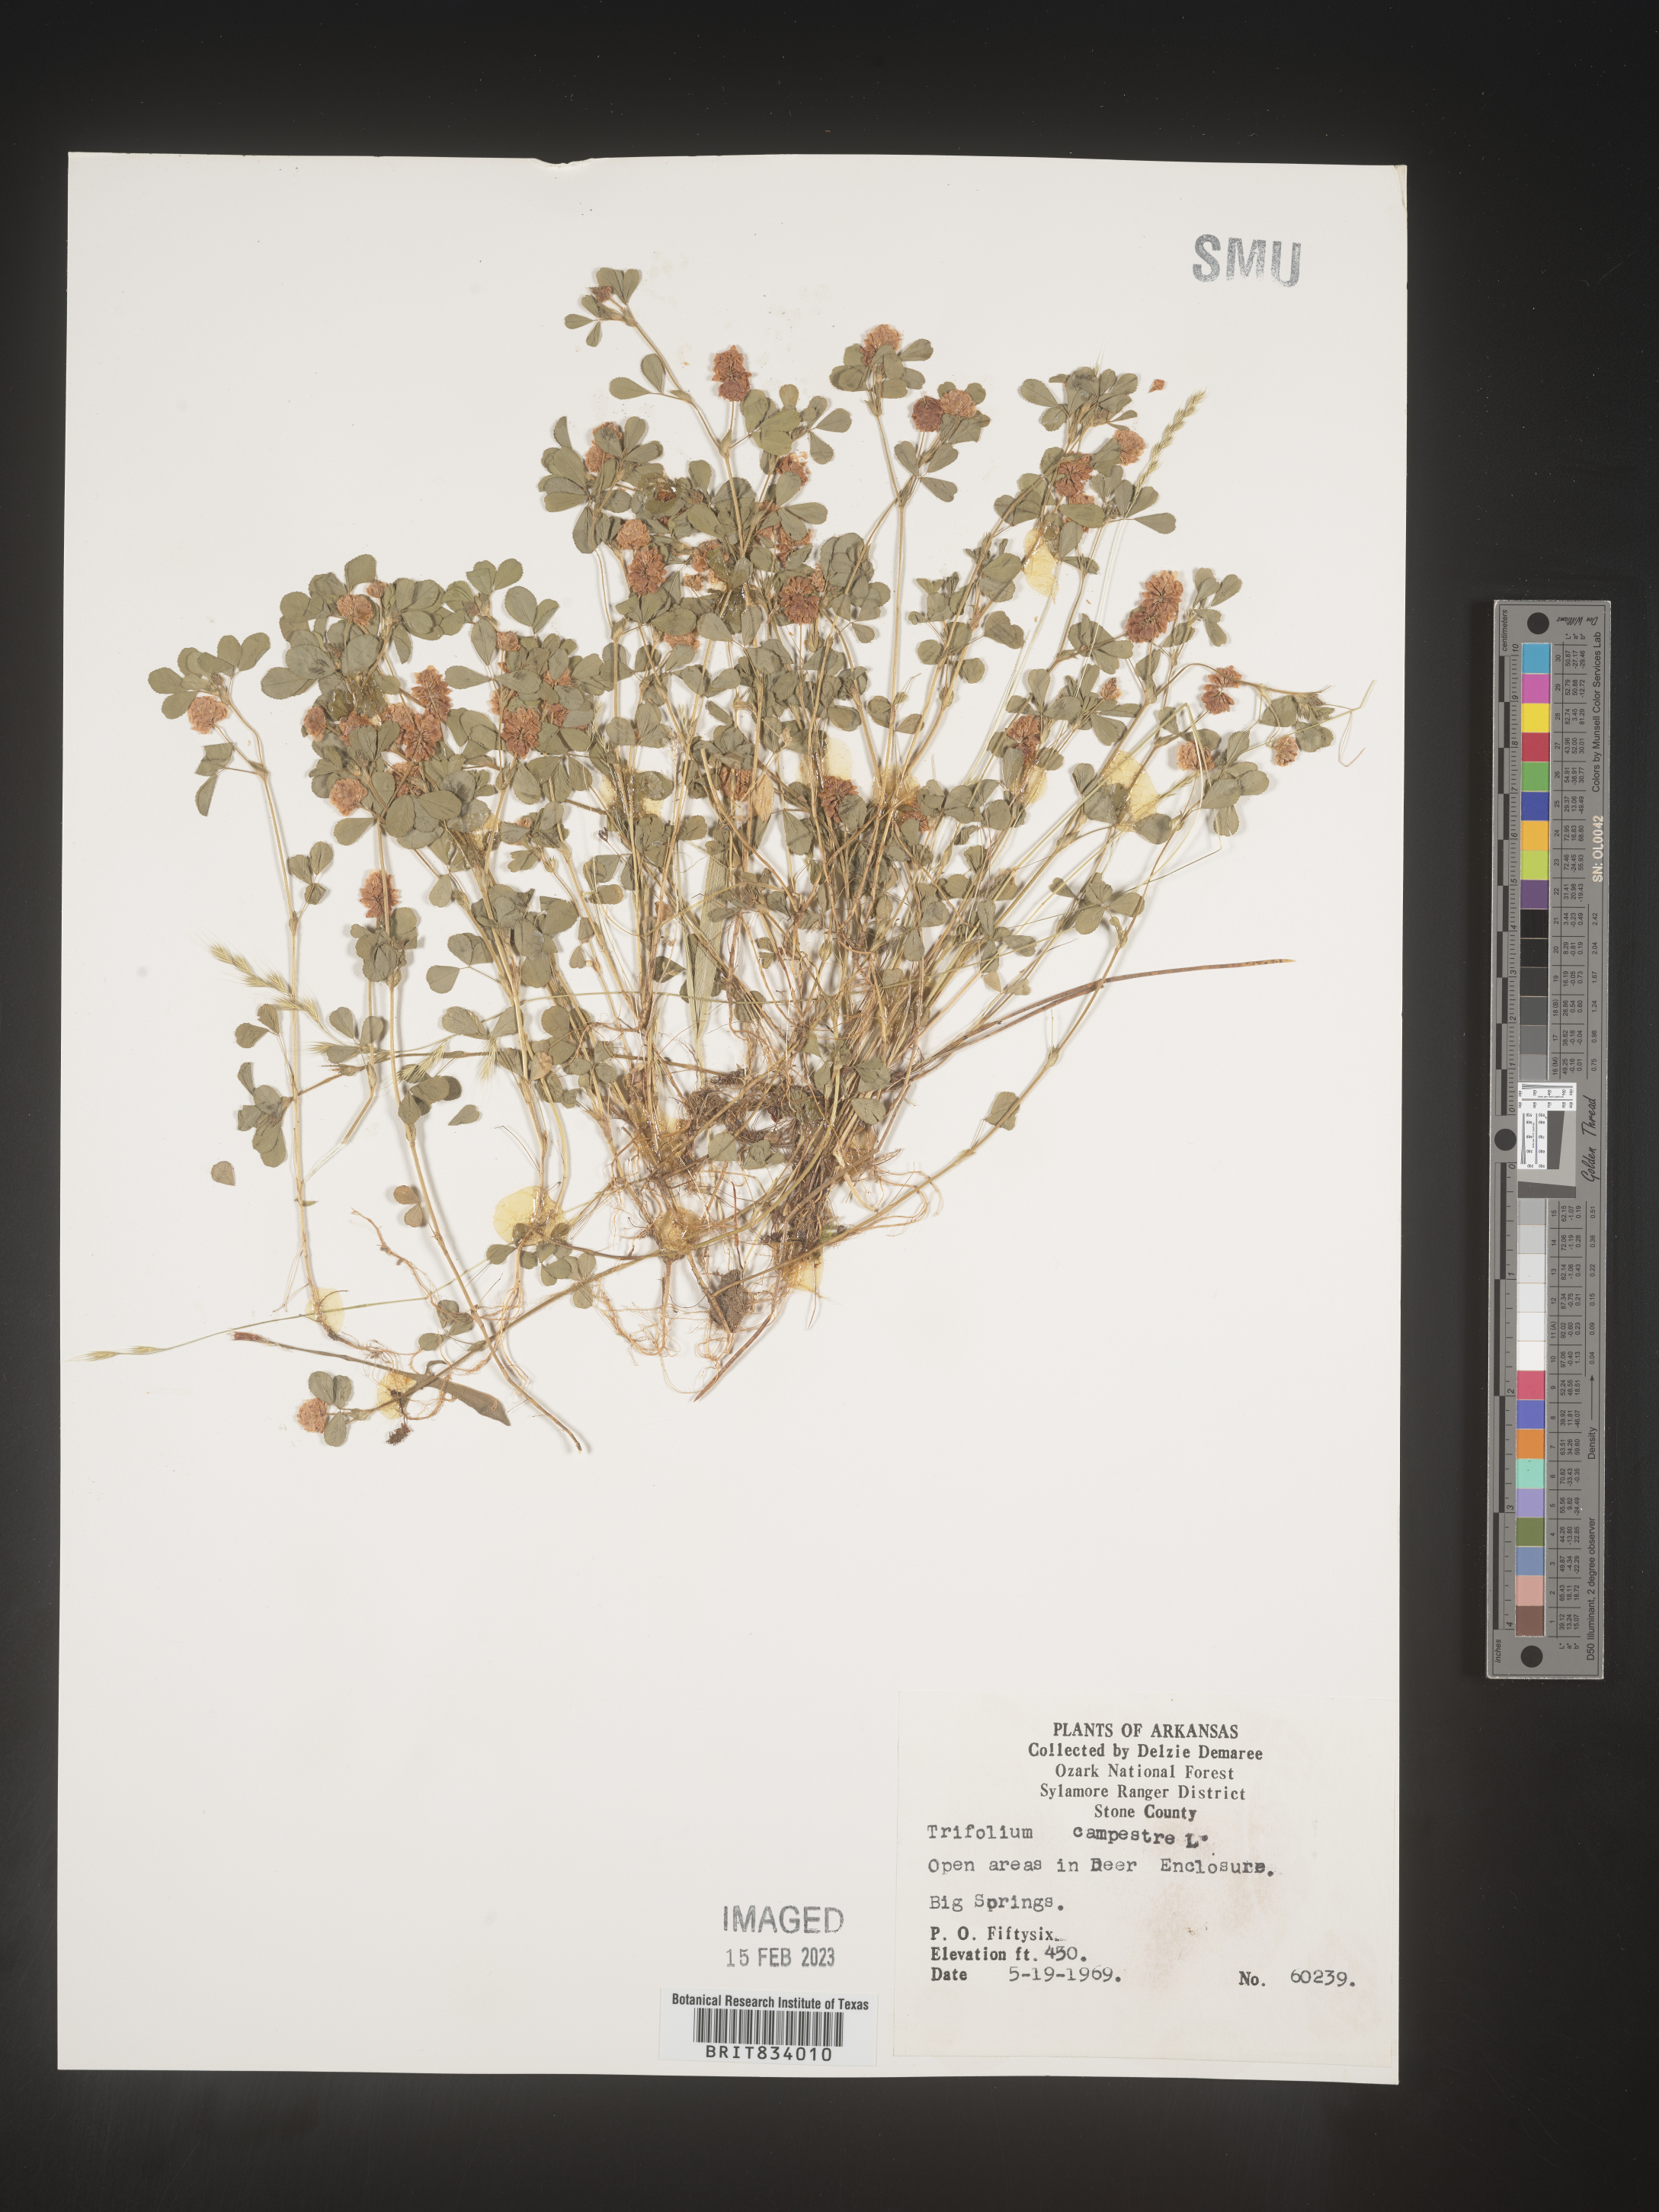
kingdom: Plantae
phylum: Tracheophyta
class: Magnoliopsida
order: Fabales
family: Fabaceae
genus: Trifolium
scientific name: Trifolium campestre
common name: Field clover
